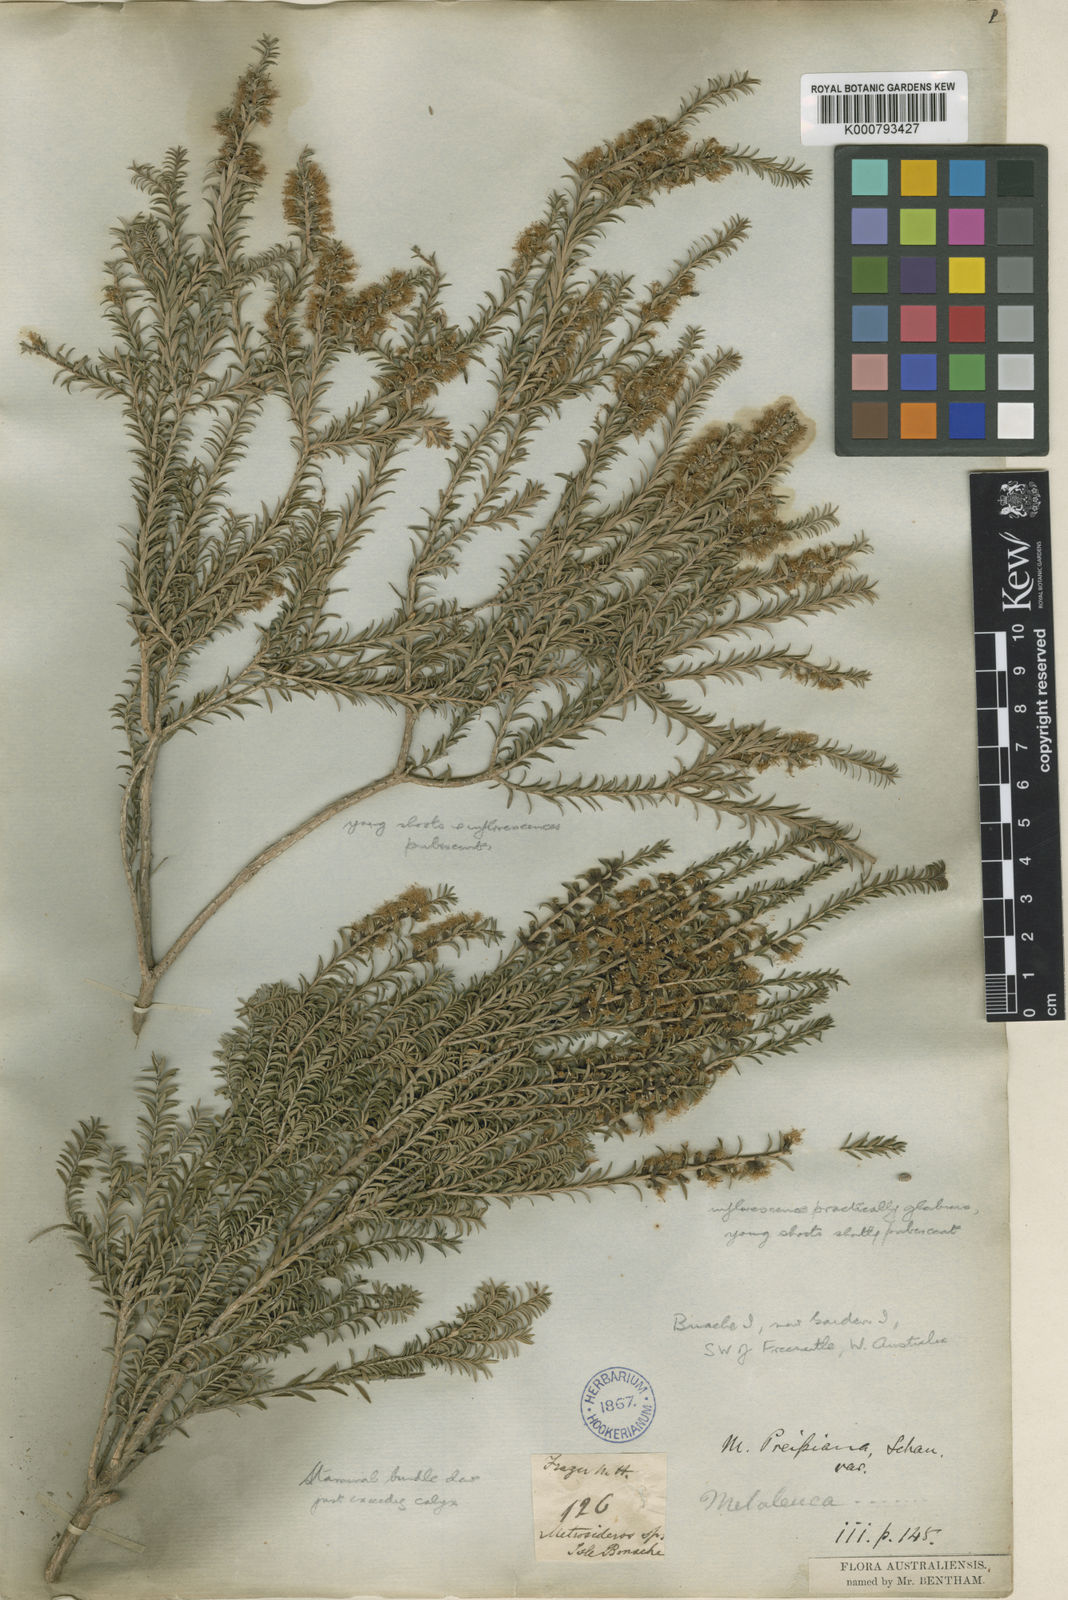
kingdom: Plantae
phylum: Tracheophyta
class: Magnoliopsida
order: Myrtales
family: Myrtaceae
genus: Melaleuca
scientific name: Melaleuca lanceolata
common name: Rottnest island teatree
